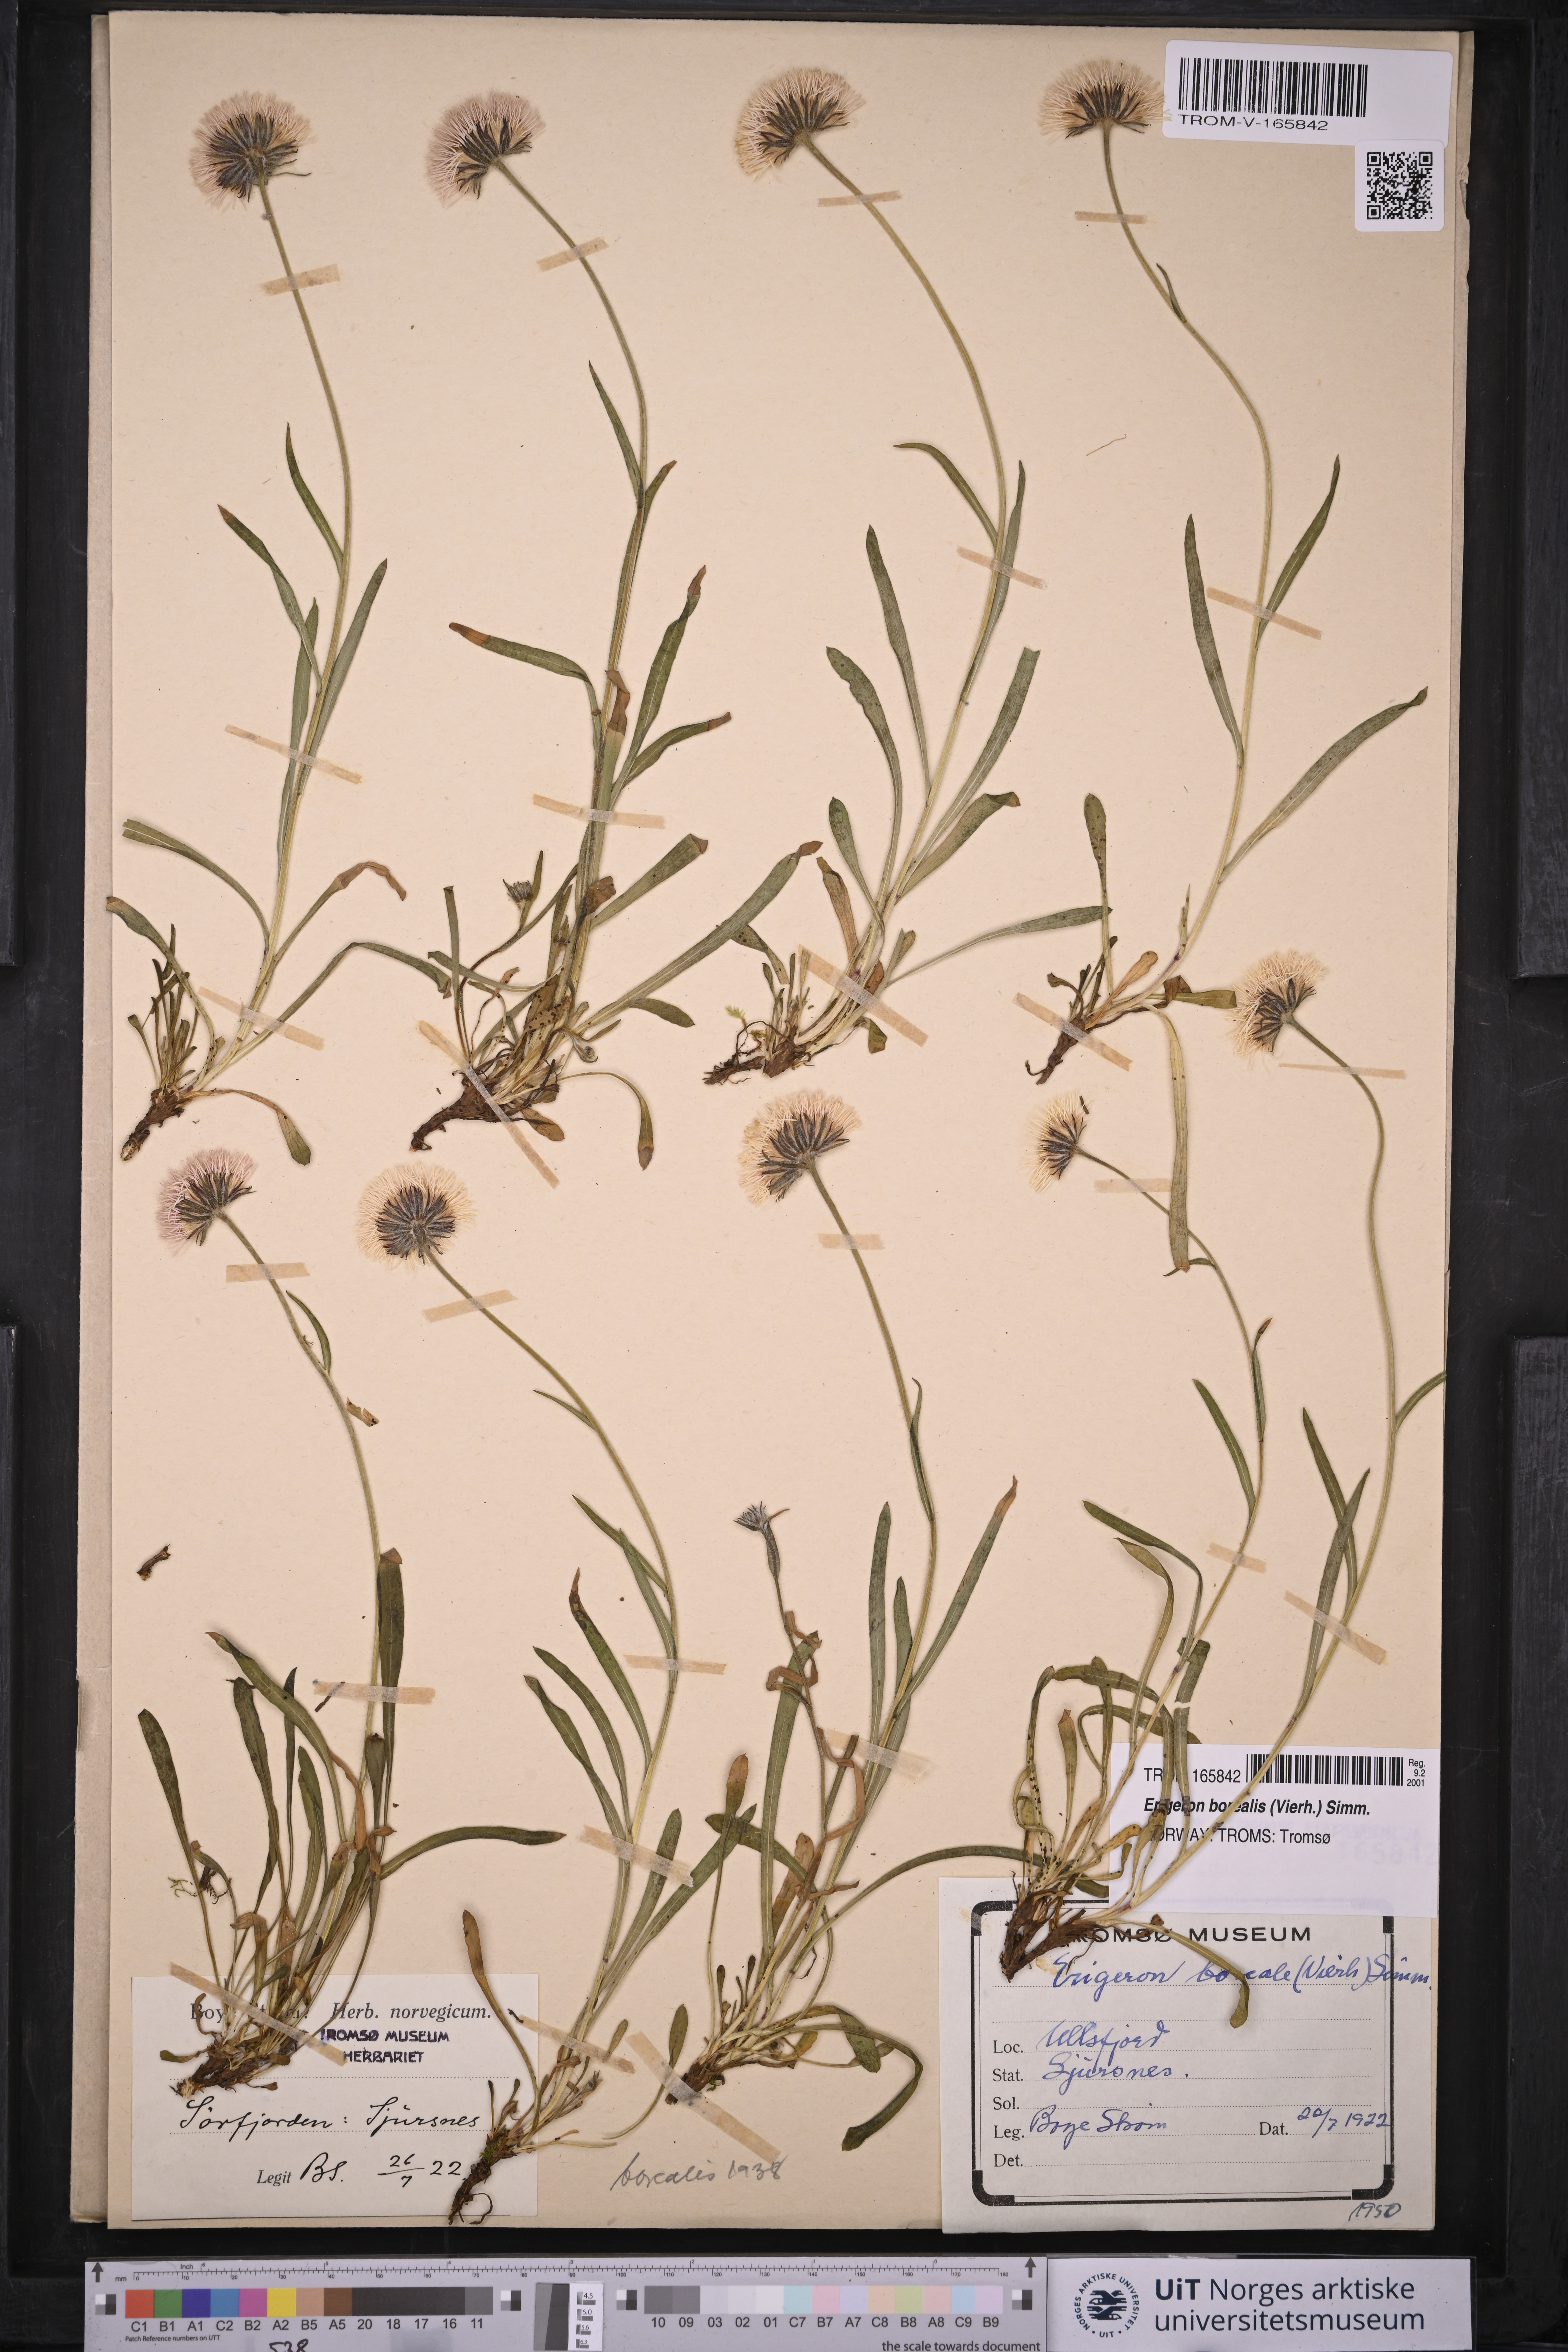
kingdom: Plantae
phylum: Tracheophyta
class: Magnoliopsida
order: Asterales
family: Asteraceae
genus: Erigeron
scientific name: Erigeron borealis
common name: Alpine fleabane
